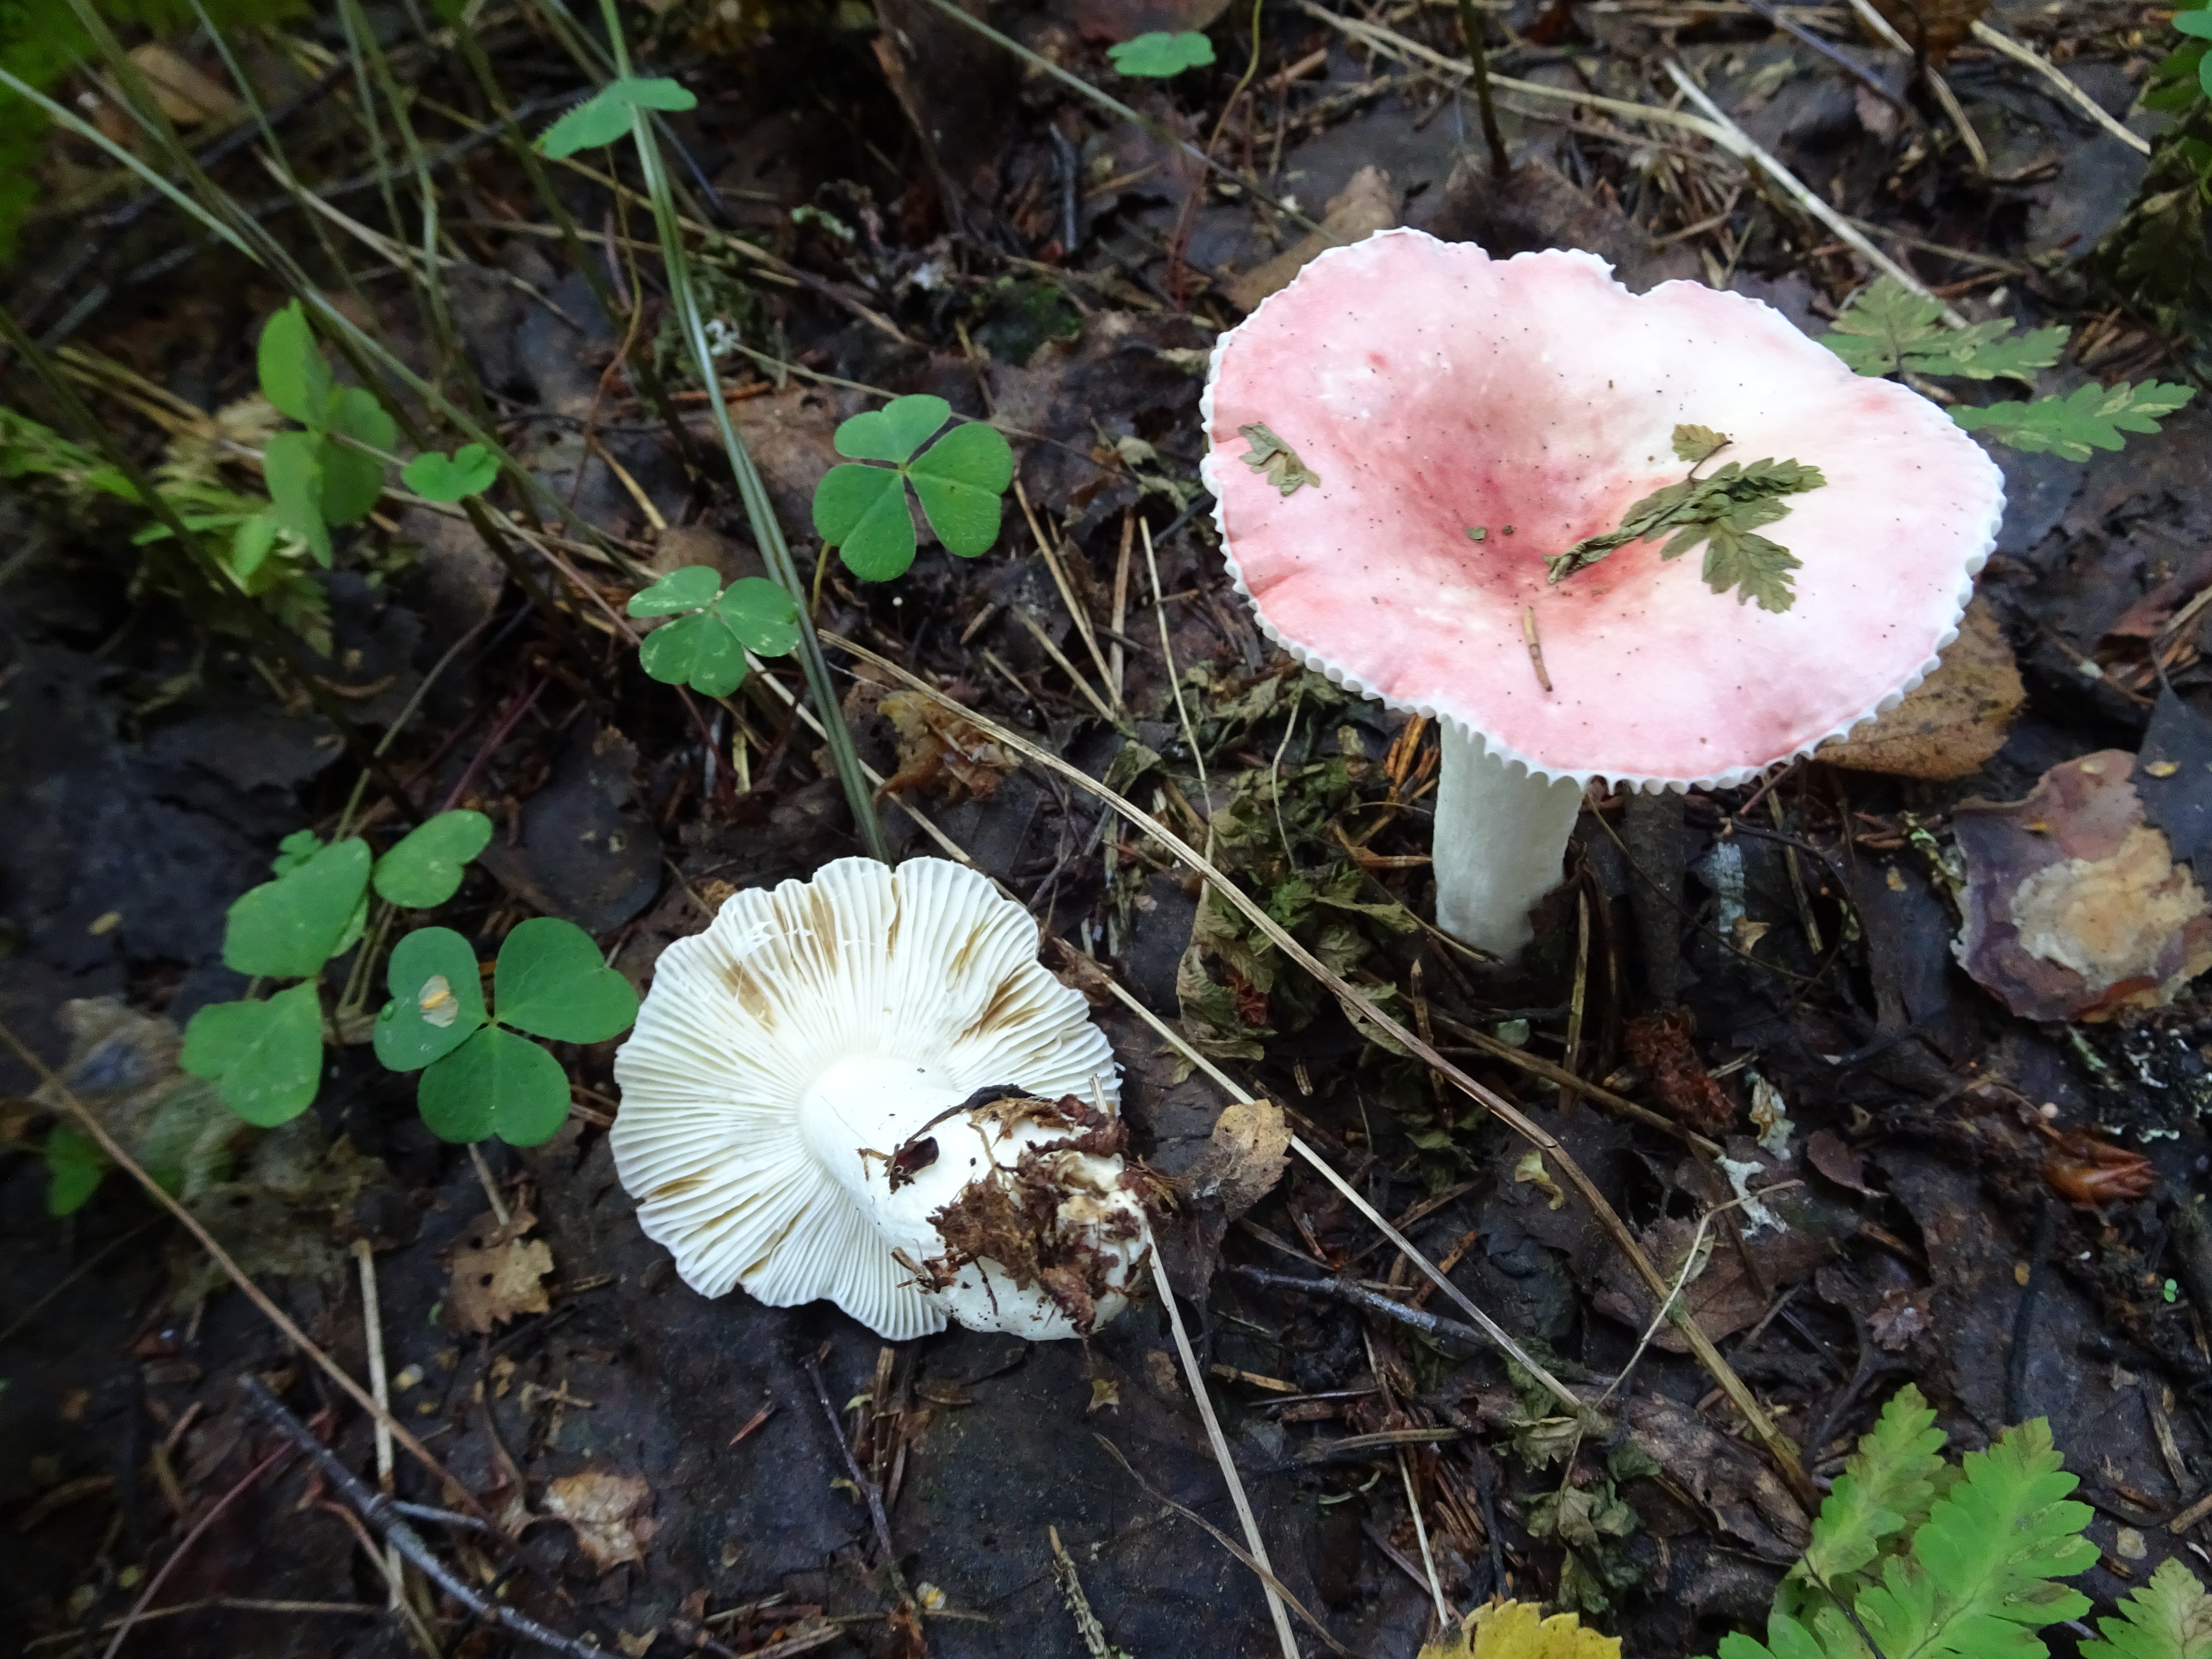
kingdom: Fungi
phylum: Basidiomycota
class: Agaricomycetes
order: Russulales
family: Russulaceae
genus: Russula
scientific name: Russula
